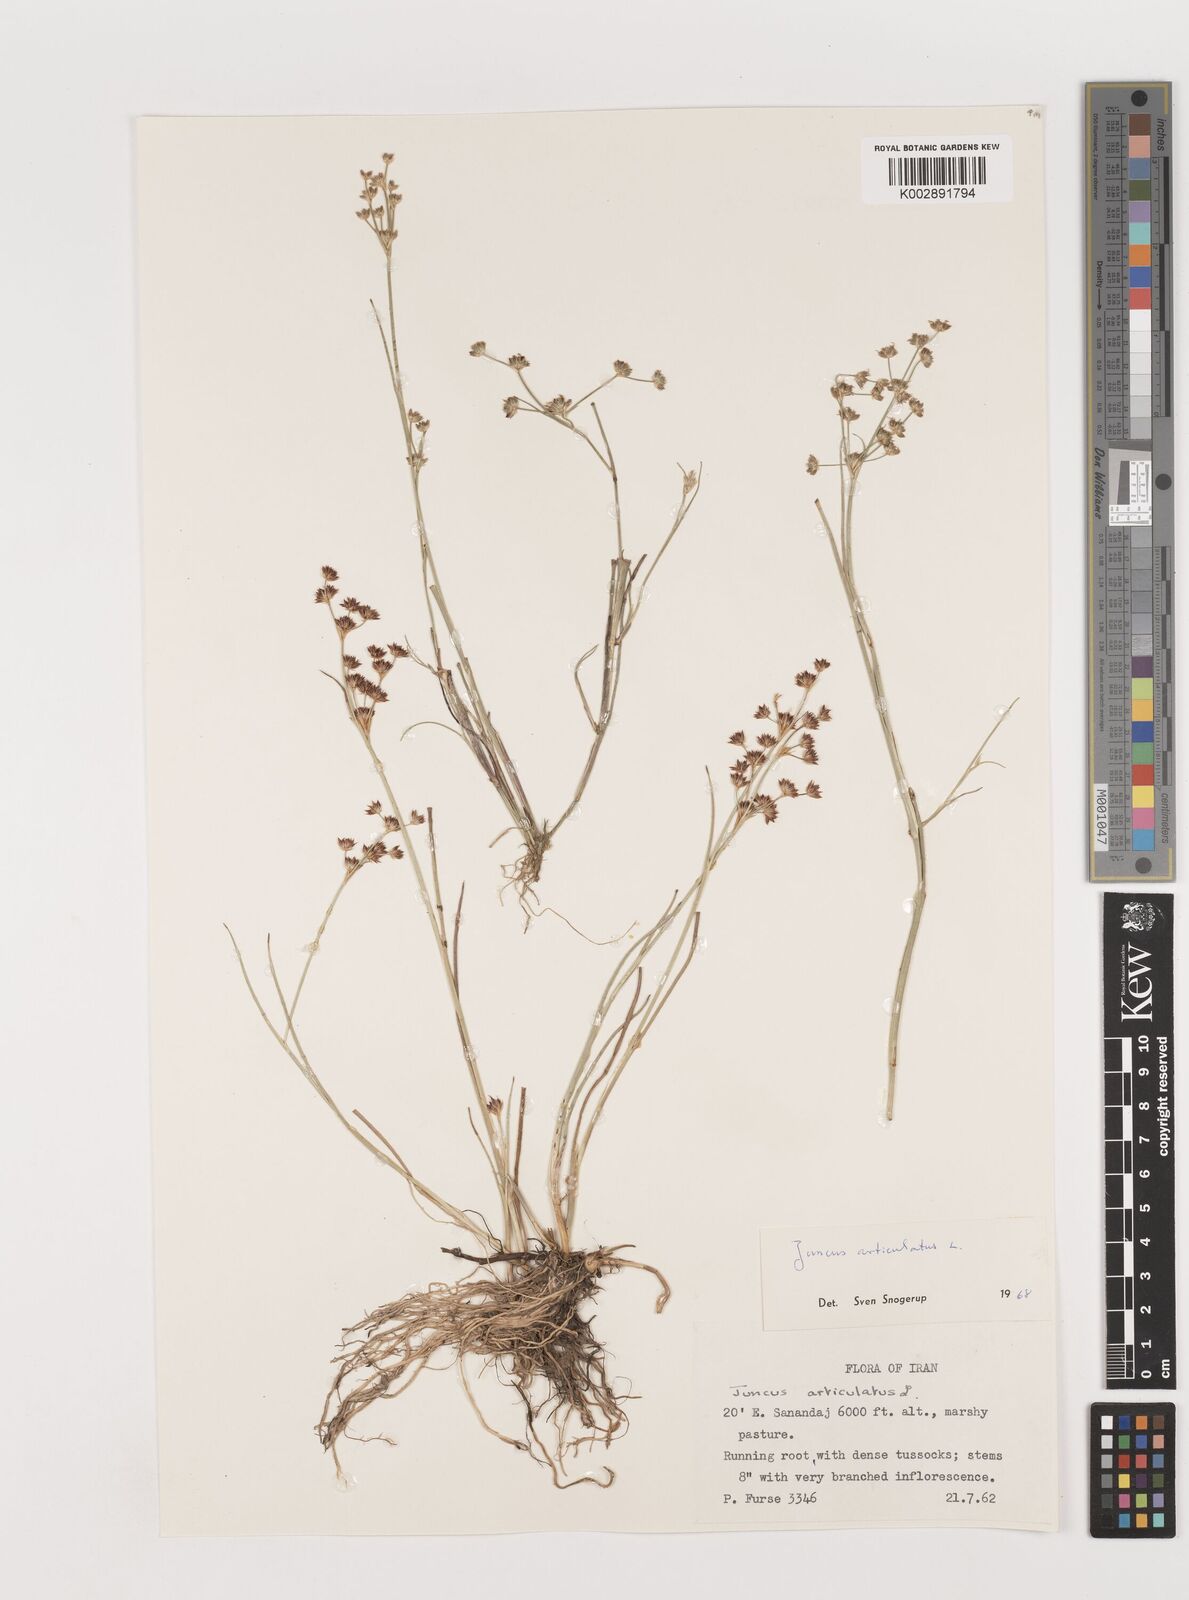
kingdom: Plantae
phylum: Tracheophyta
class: Liliopsida
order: Poales
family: Juncaceae
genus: Juncus
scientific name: Juncus articulatus
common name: Jointed rush
